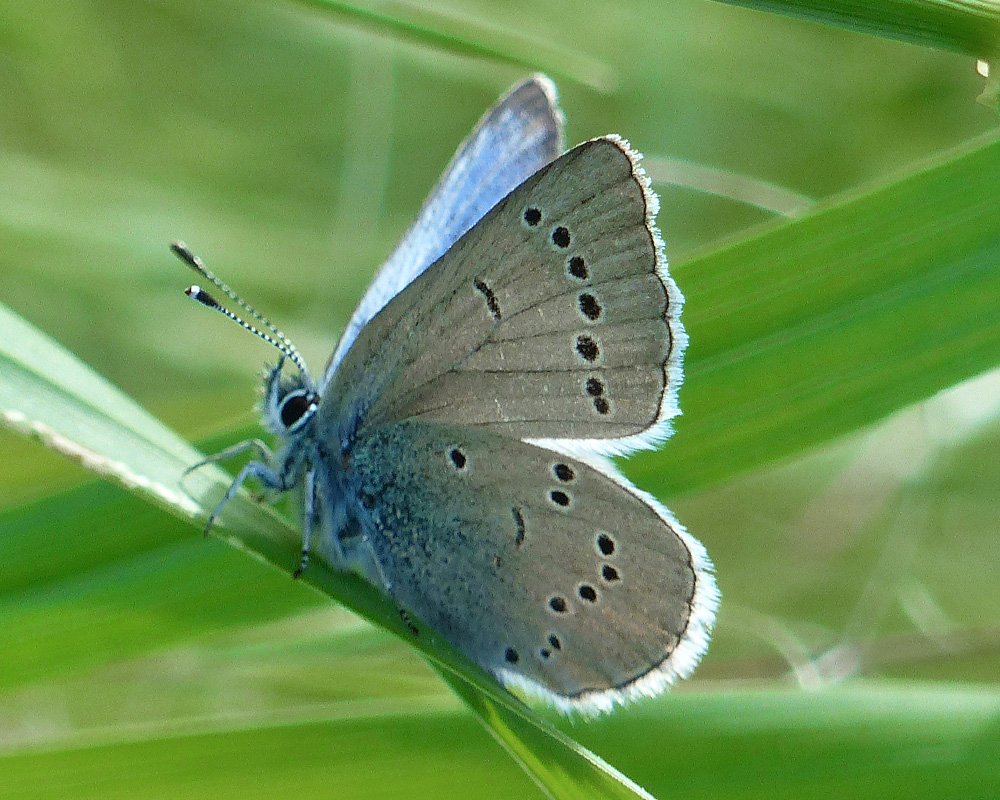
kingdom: Animalia
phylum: Arthropoda
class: Insecta
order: Lepidoptera
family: Lycaenidae
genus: Glaucopsyche
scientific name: Glaucopsyche lygdamus
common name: Silvery Blue
